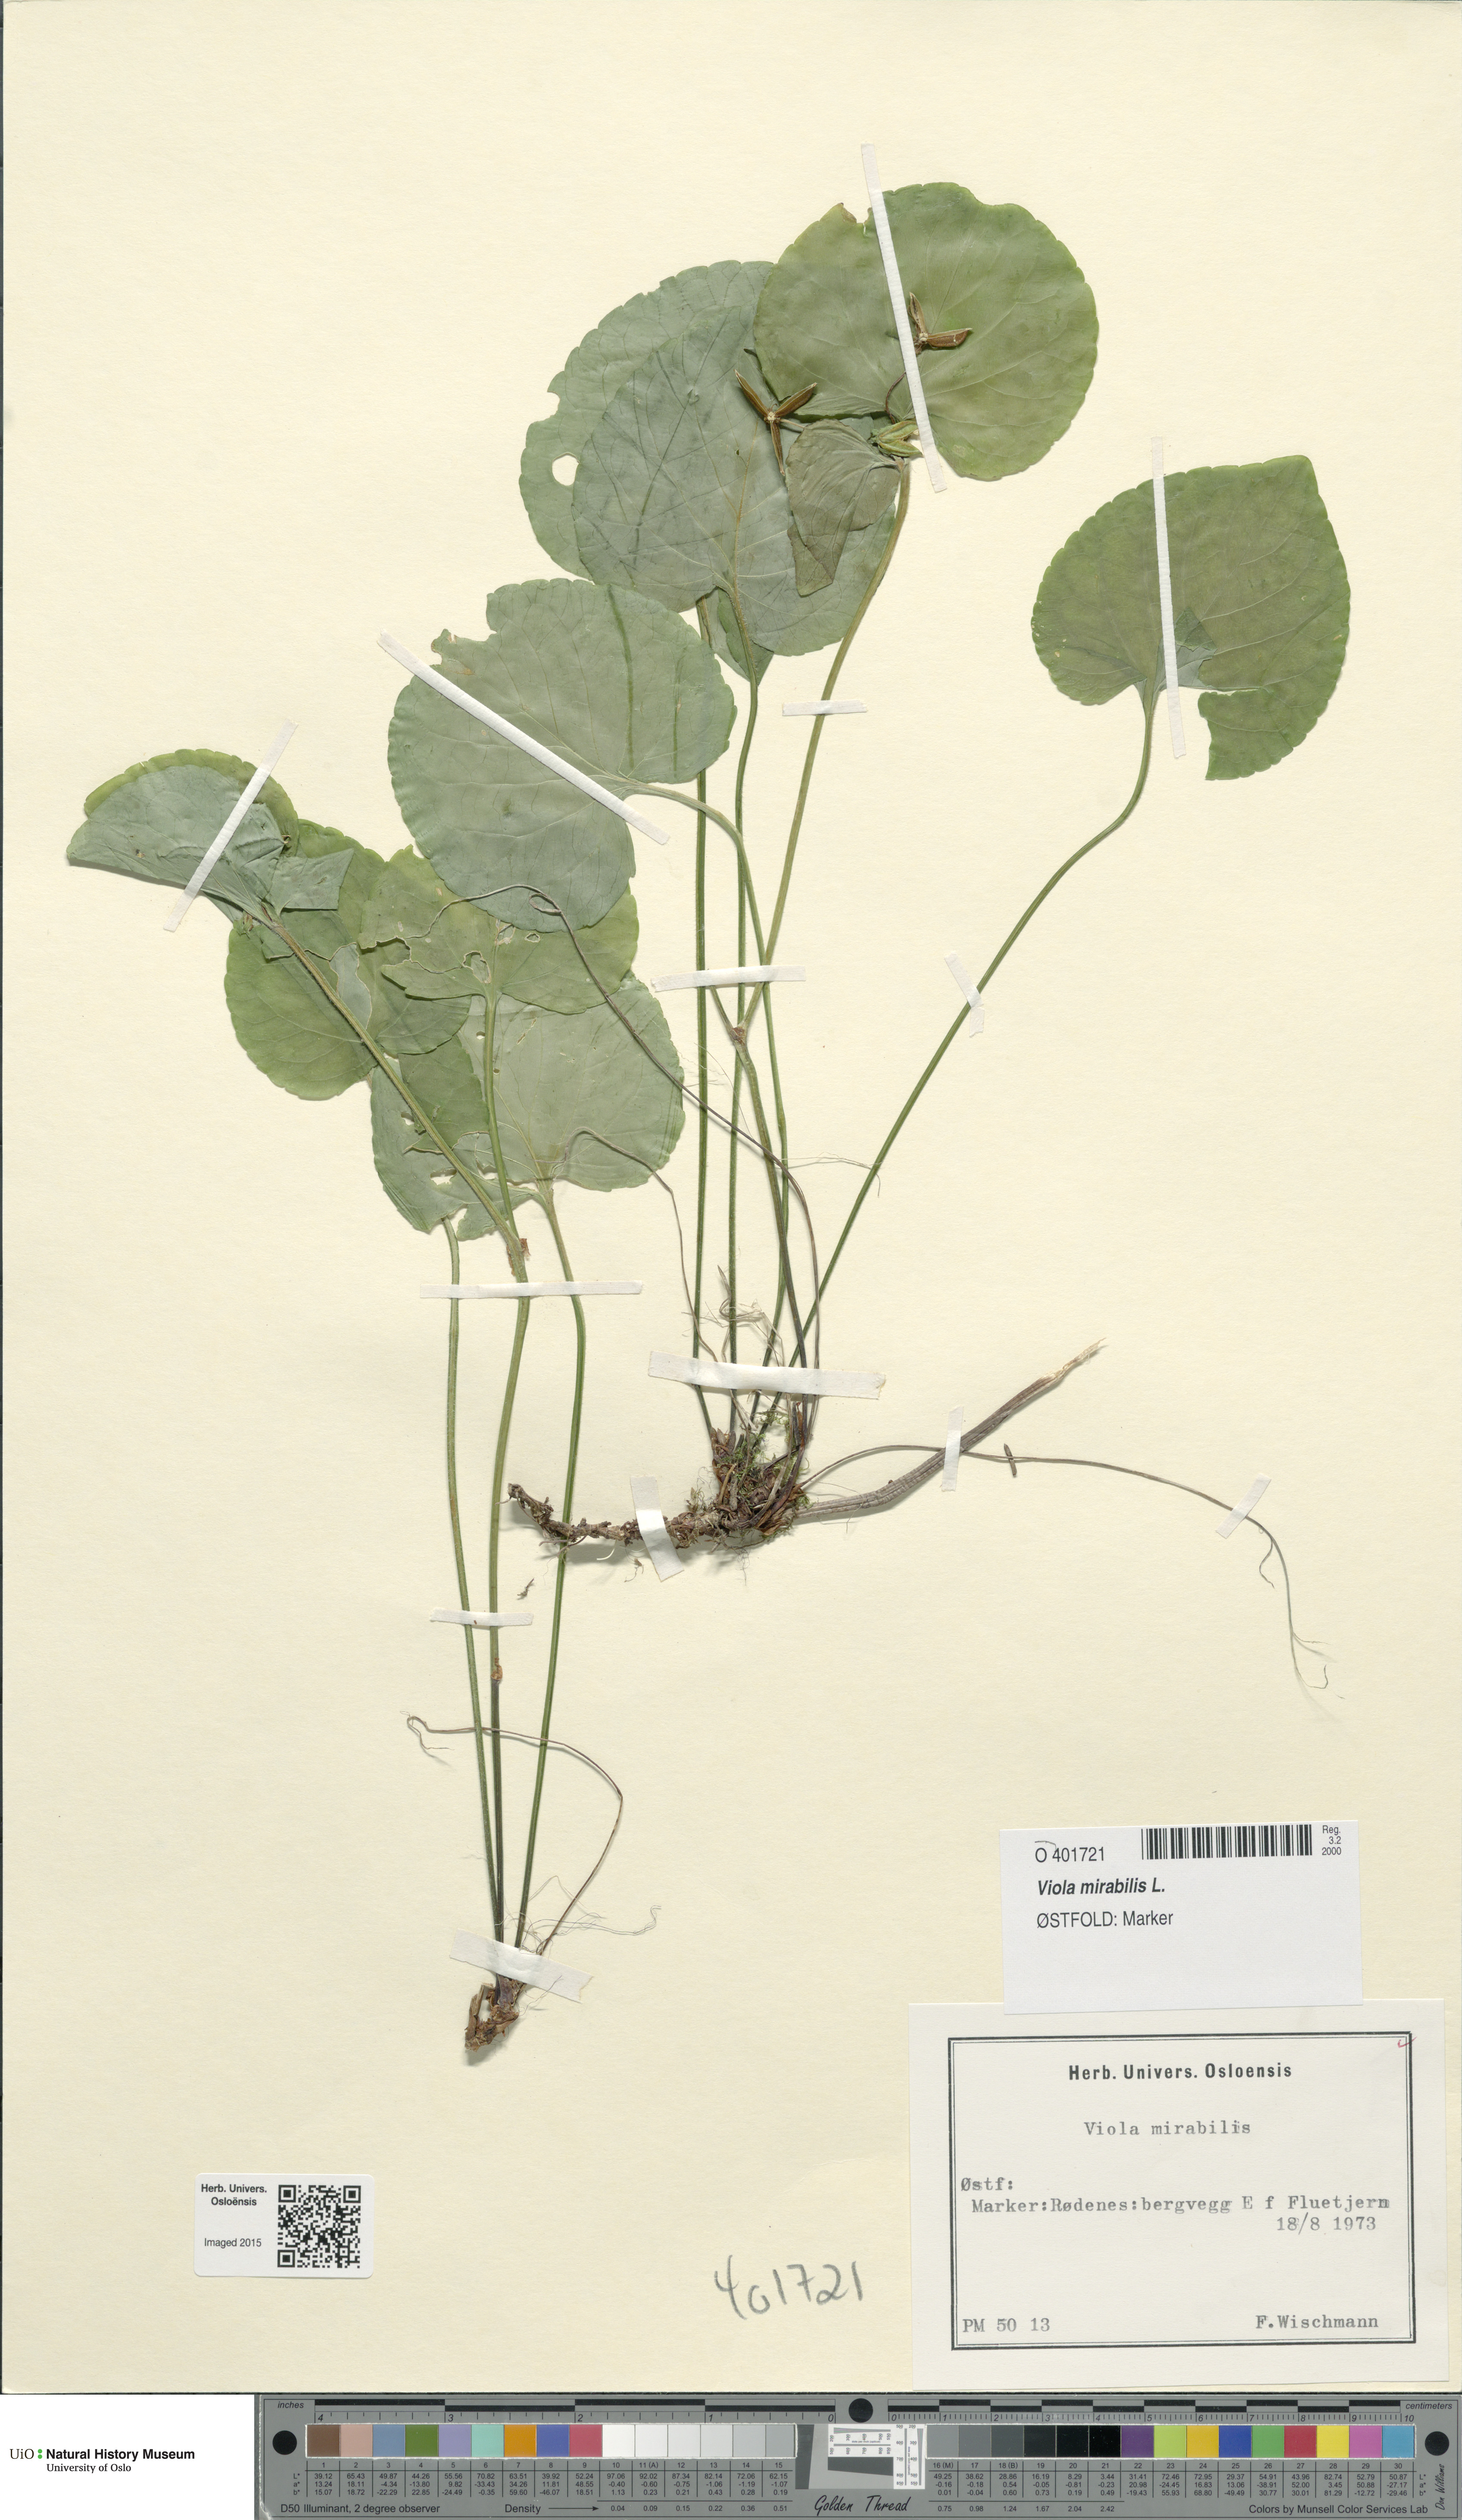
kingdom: Plantae
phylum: Tracheophyta
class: Magnoliopsida
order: Malpighiales
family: Violaceae
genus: Viola
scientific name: Viola mirabilis
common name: Wonder violet
